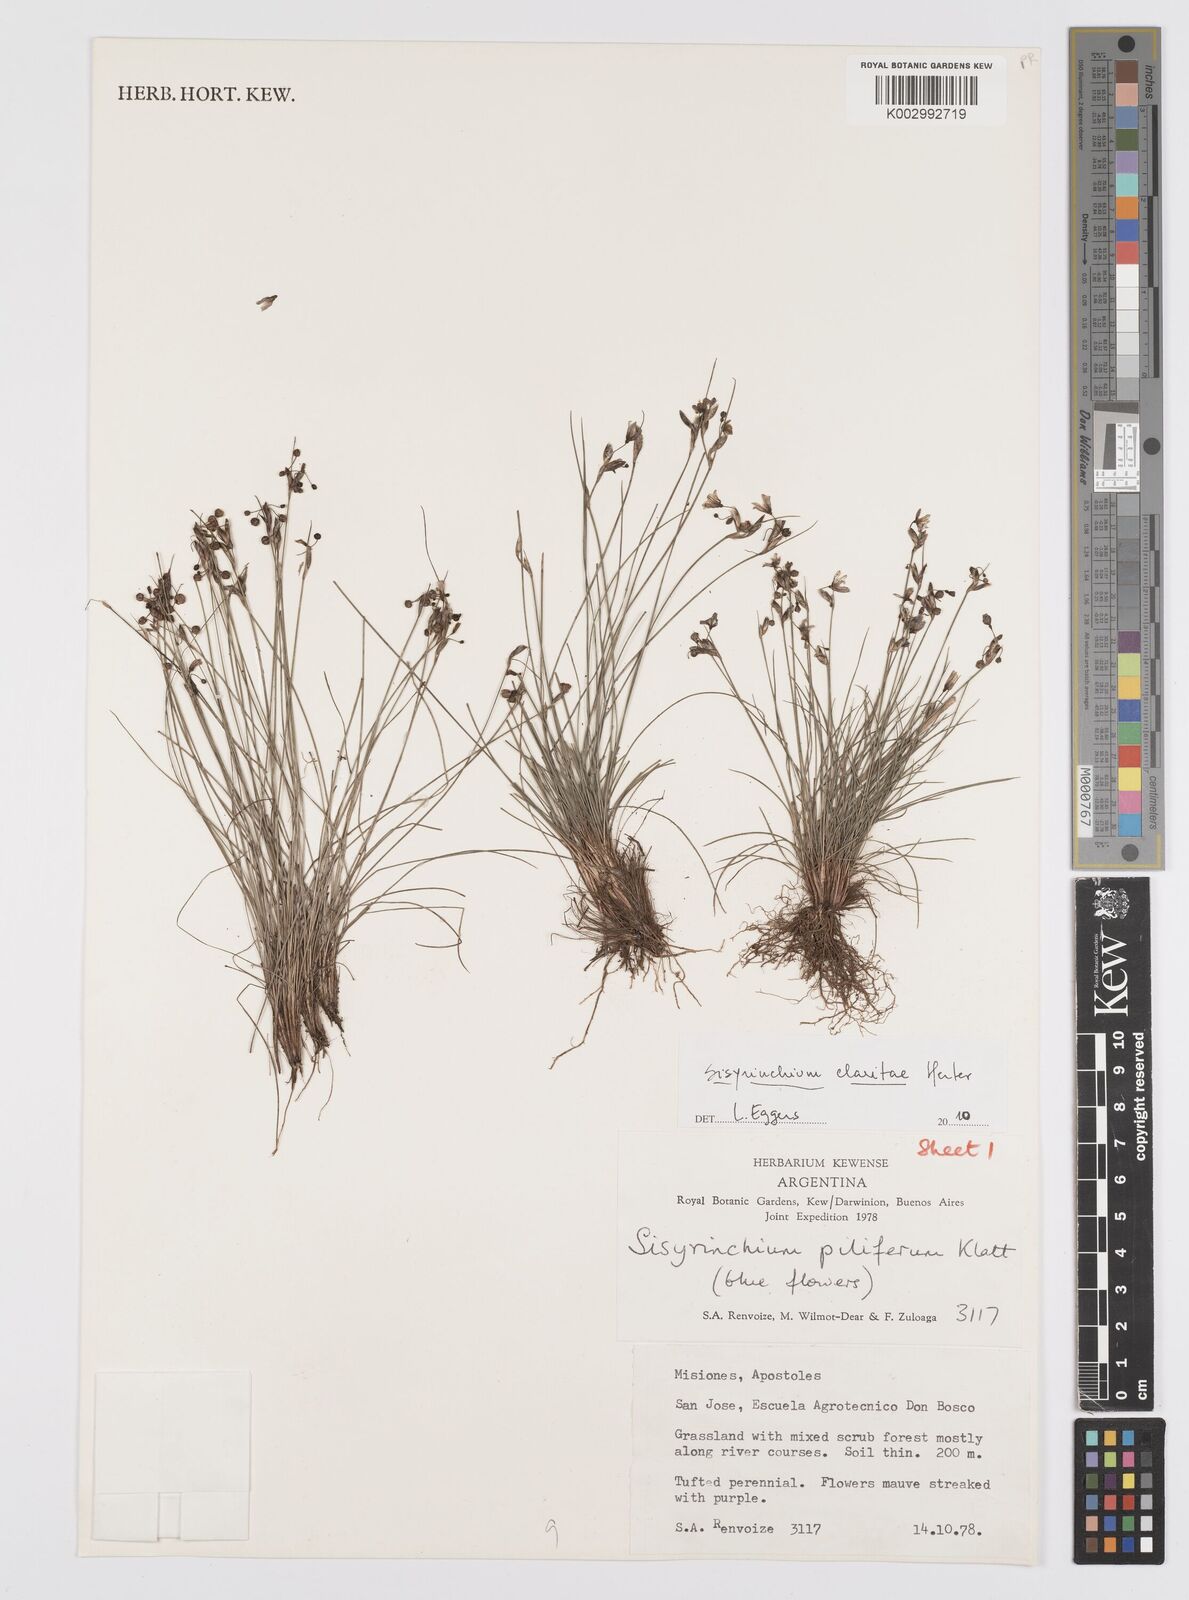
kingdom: Plantae
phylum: Tracheophyta
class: Liliopsida
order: Asparagales
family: Iridaceae
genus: Sisyrinchium
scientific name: Sisyrinchium commutatum
